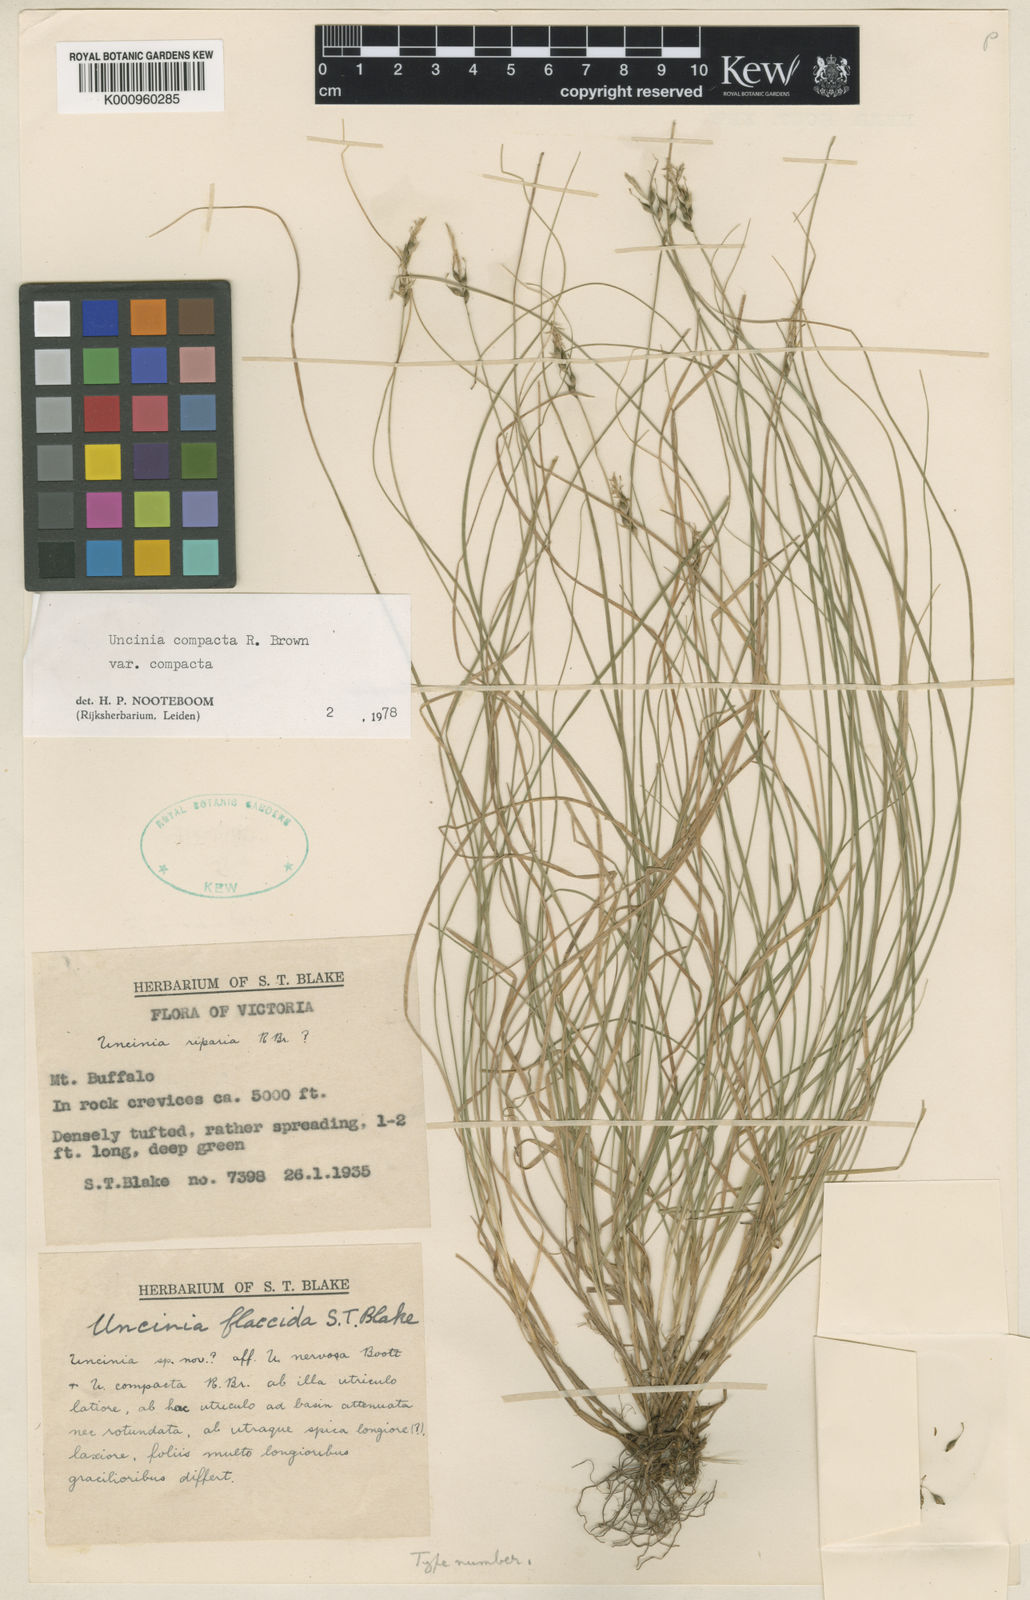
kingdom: Plantae
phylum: Tracheophyta
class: Liliopsida
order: Poales
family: Cyperaceae
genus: Carex
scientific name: Carex austrocompacta
